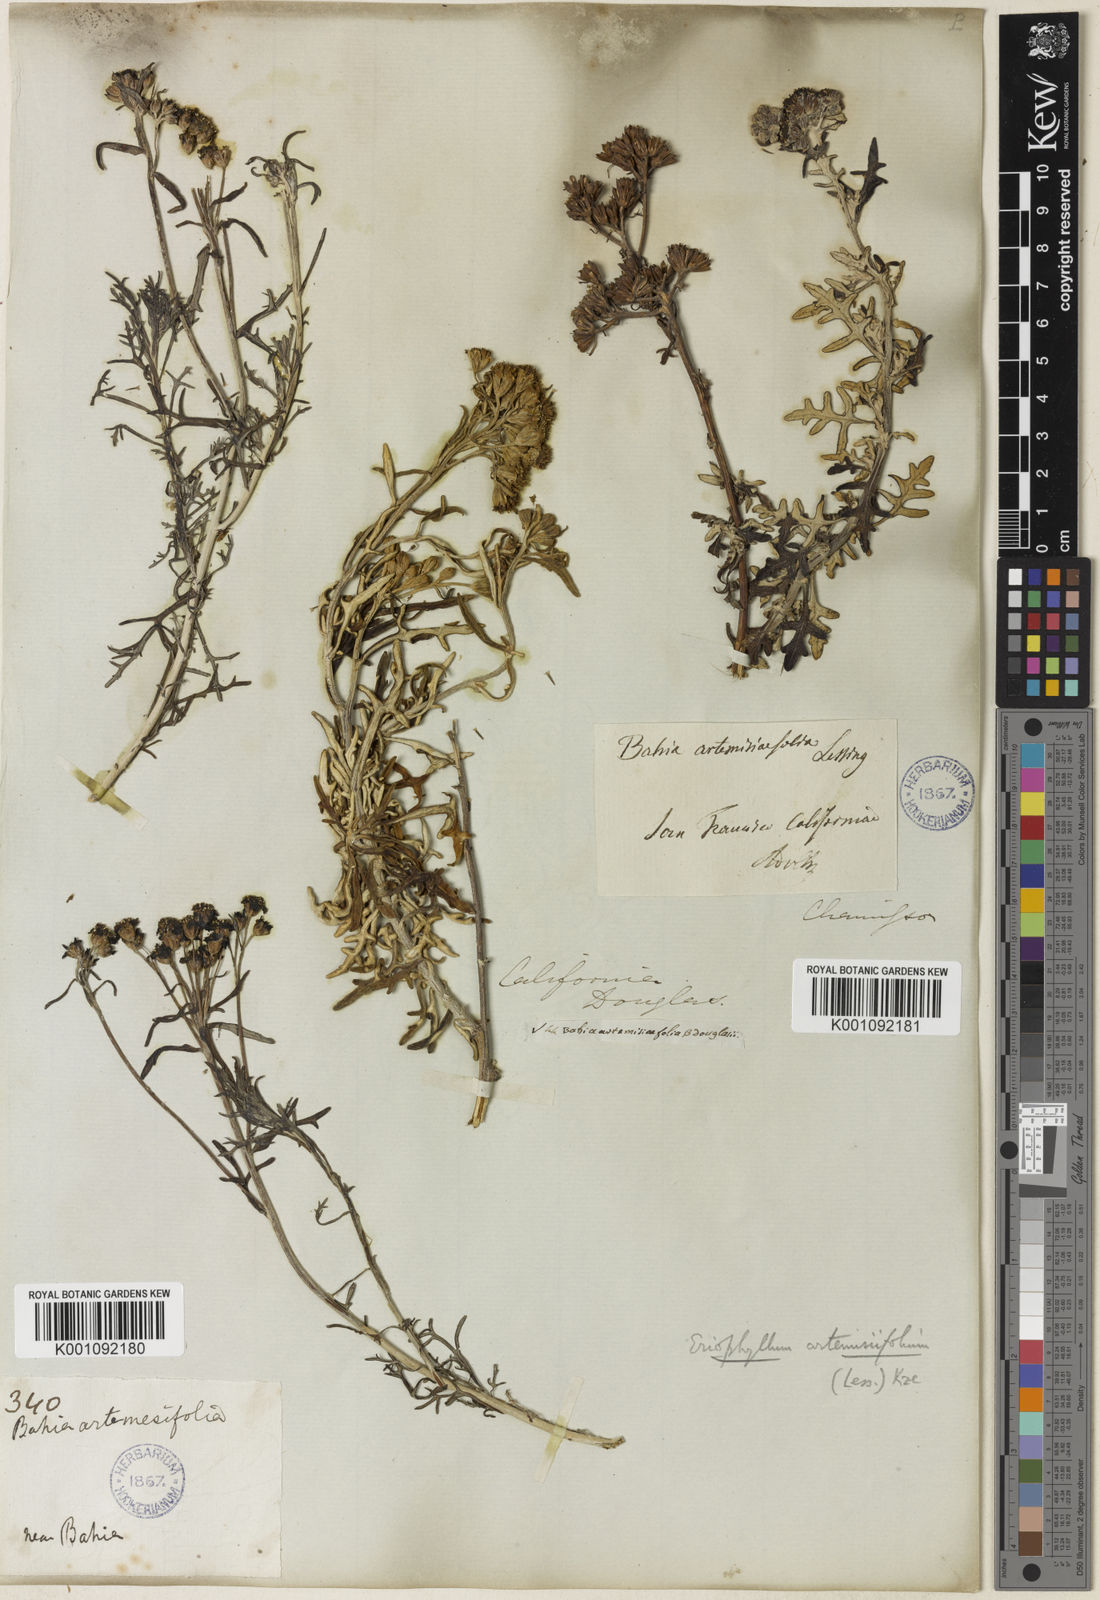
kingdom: Plantae
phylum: Tracheophyta
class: Magnoliopsida
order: Asterales
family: Asteraceae
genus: Eriophyllum
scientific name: Eriophyllum staechadifolium
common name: Lizardtail
